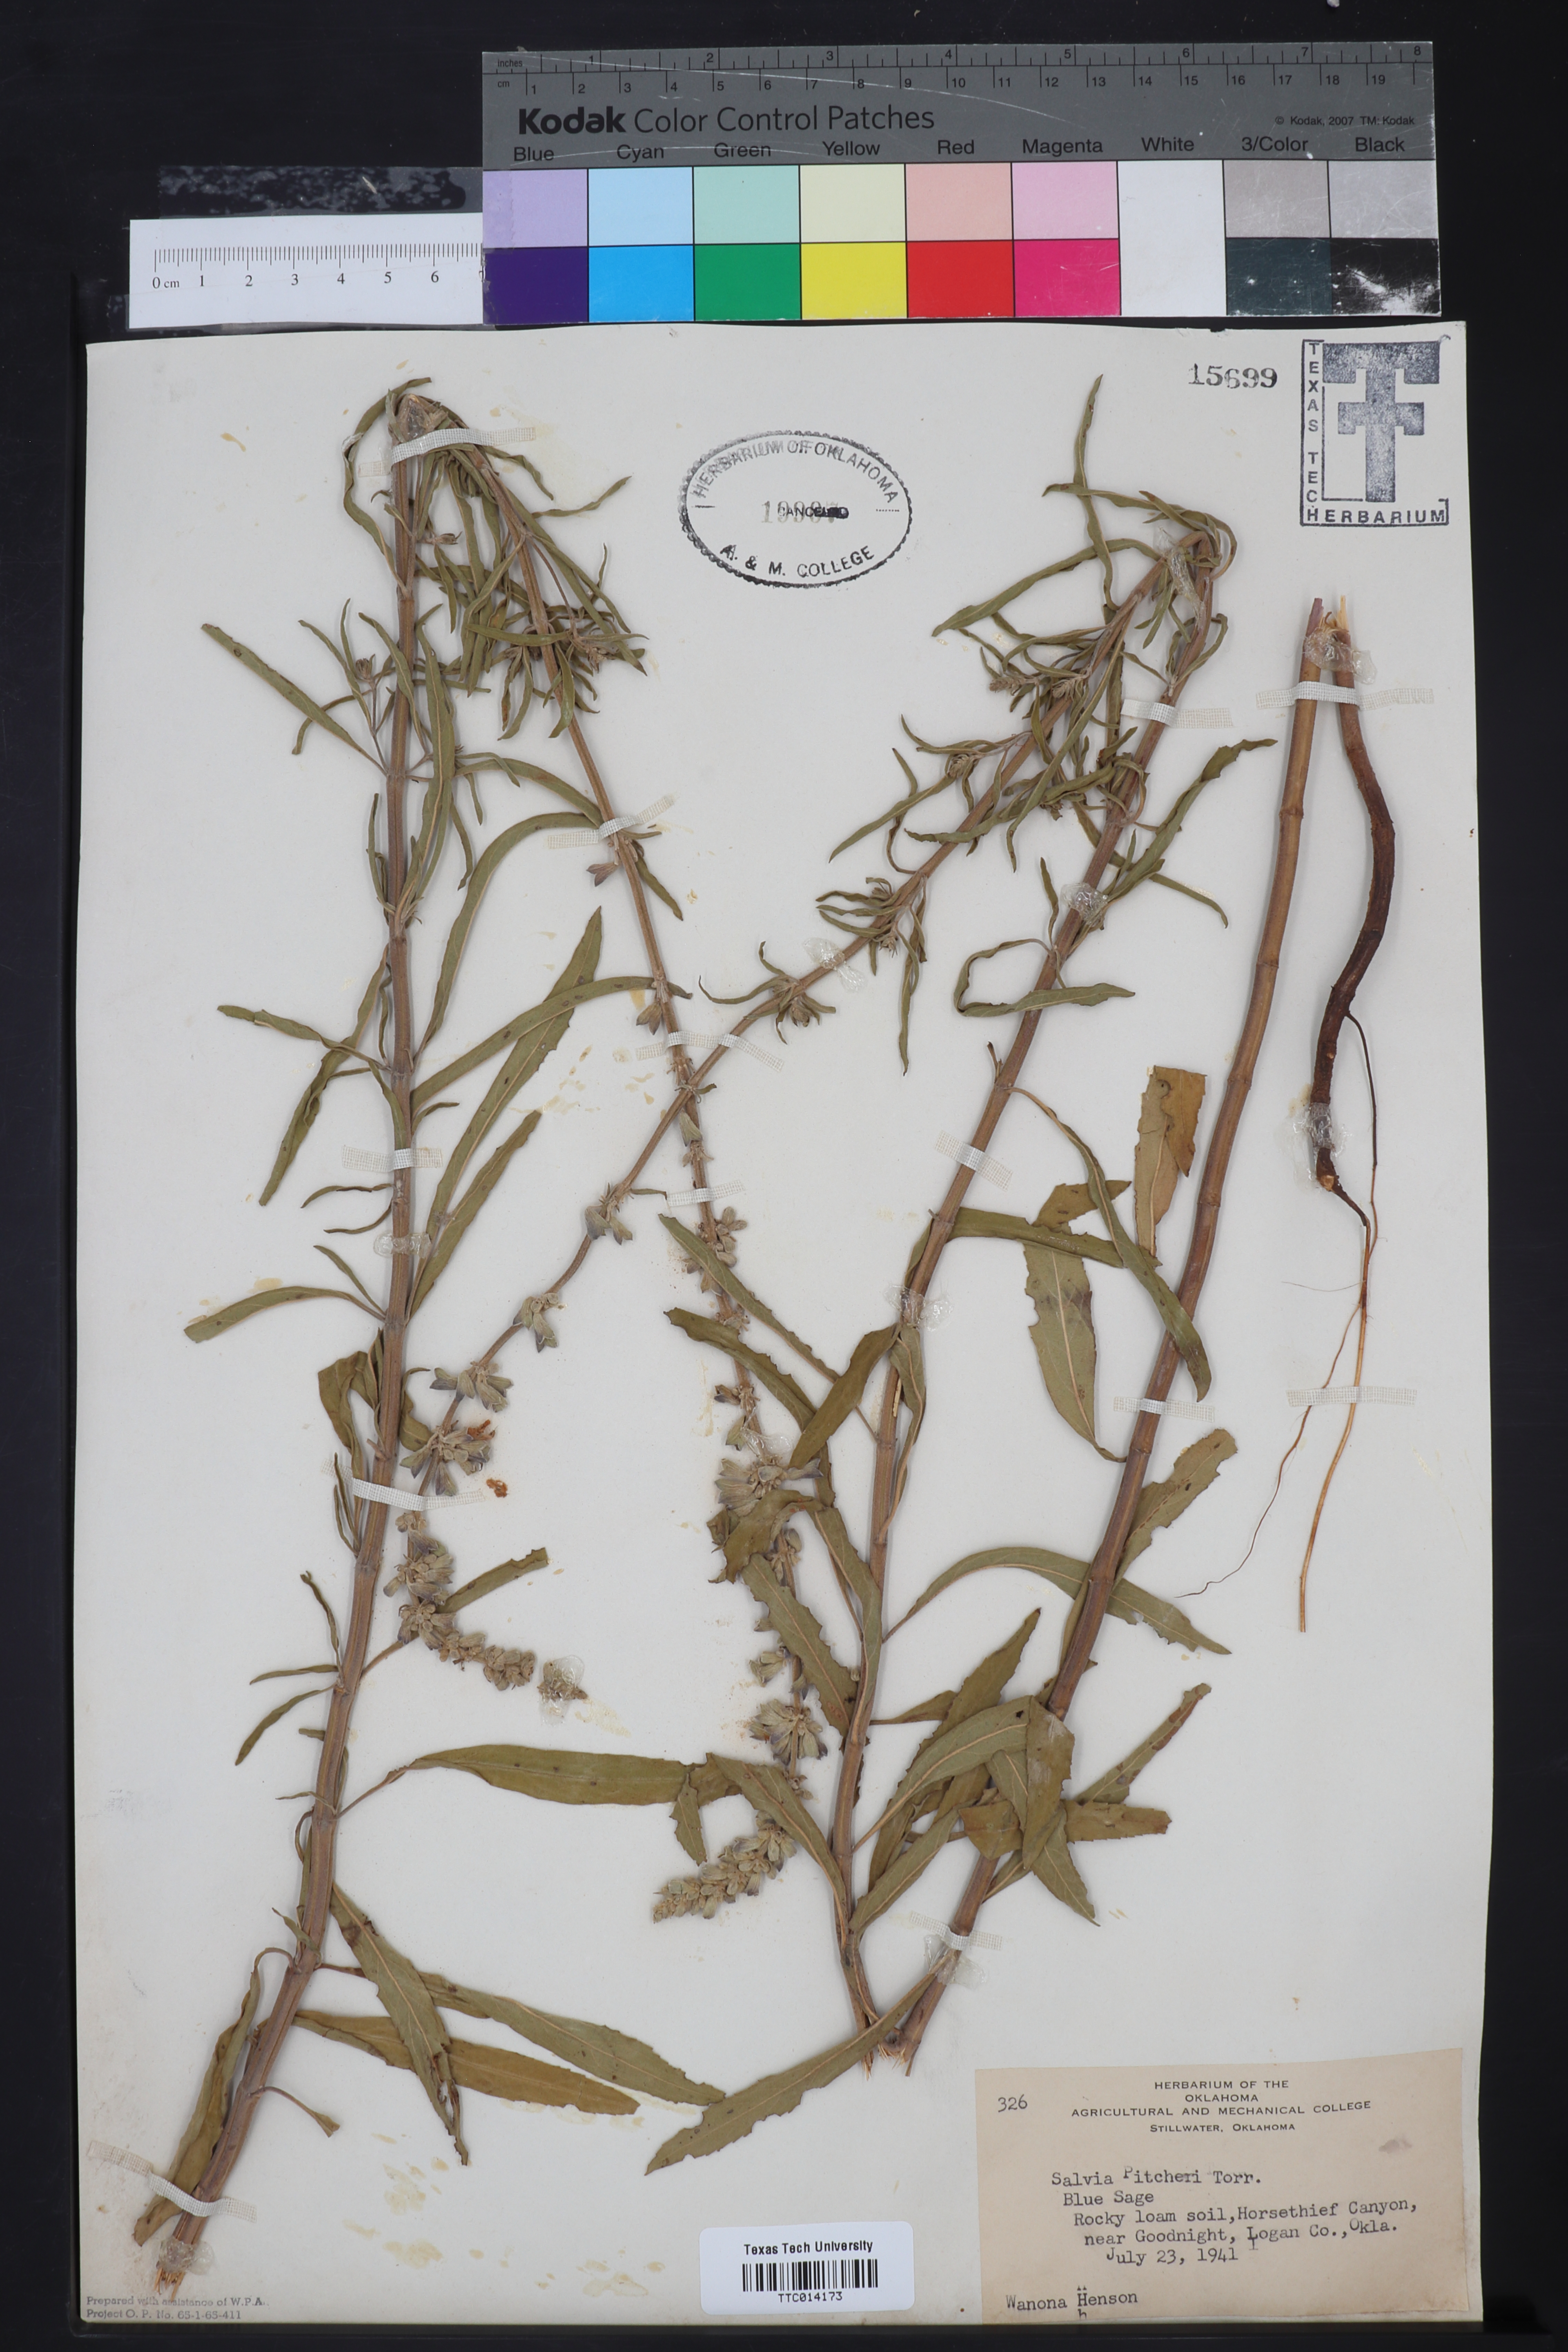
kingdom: Plantae
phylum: Tracheophyta
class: Magnoliopsida
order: Lamiales
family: Lamiaceae
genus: Salvia
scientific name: Salvia azurea
